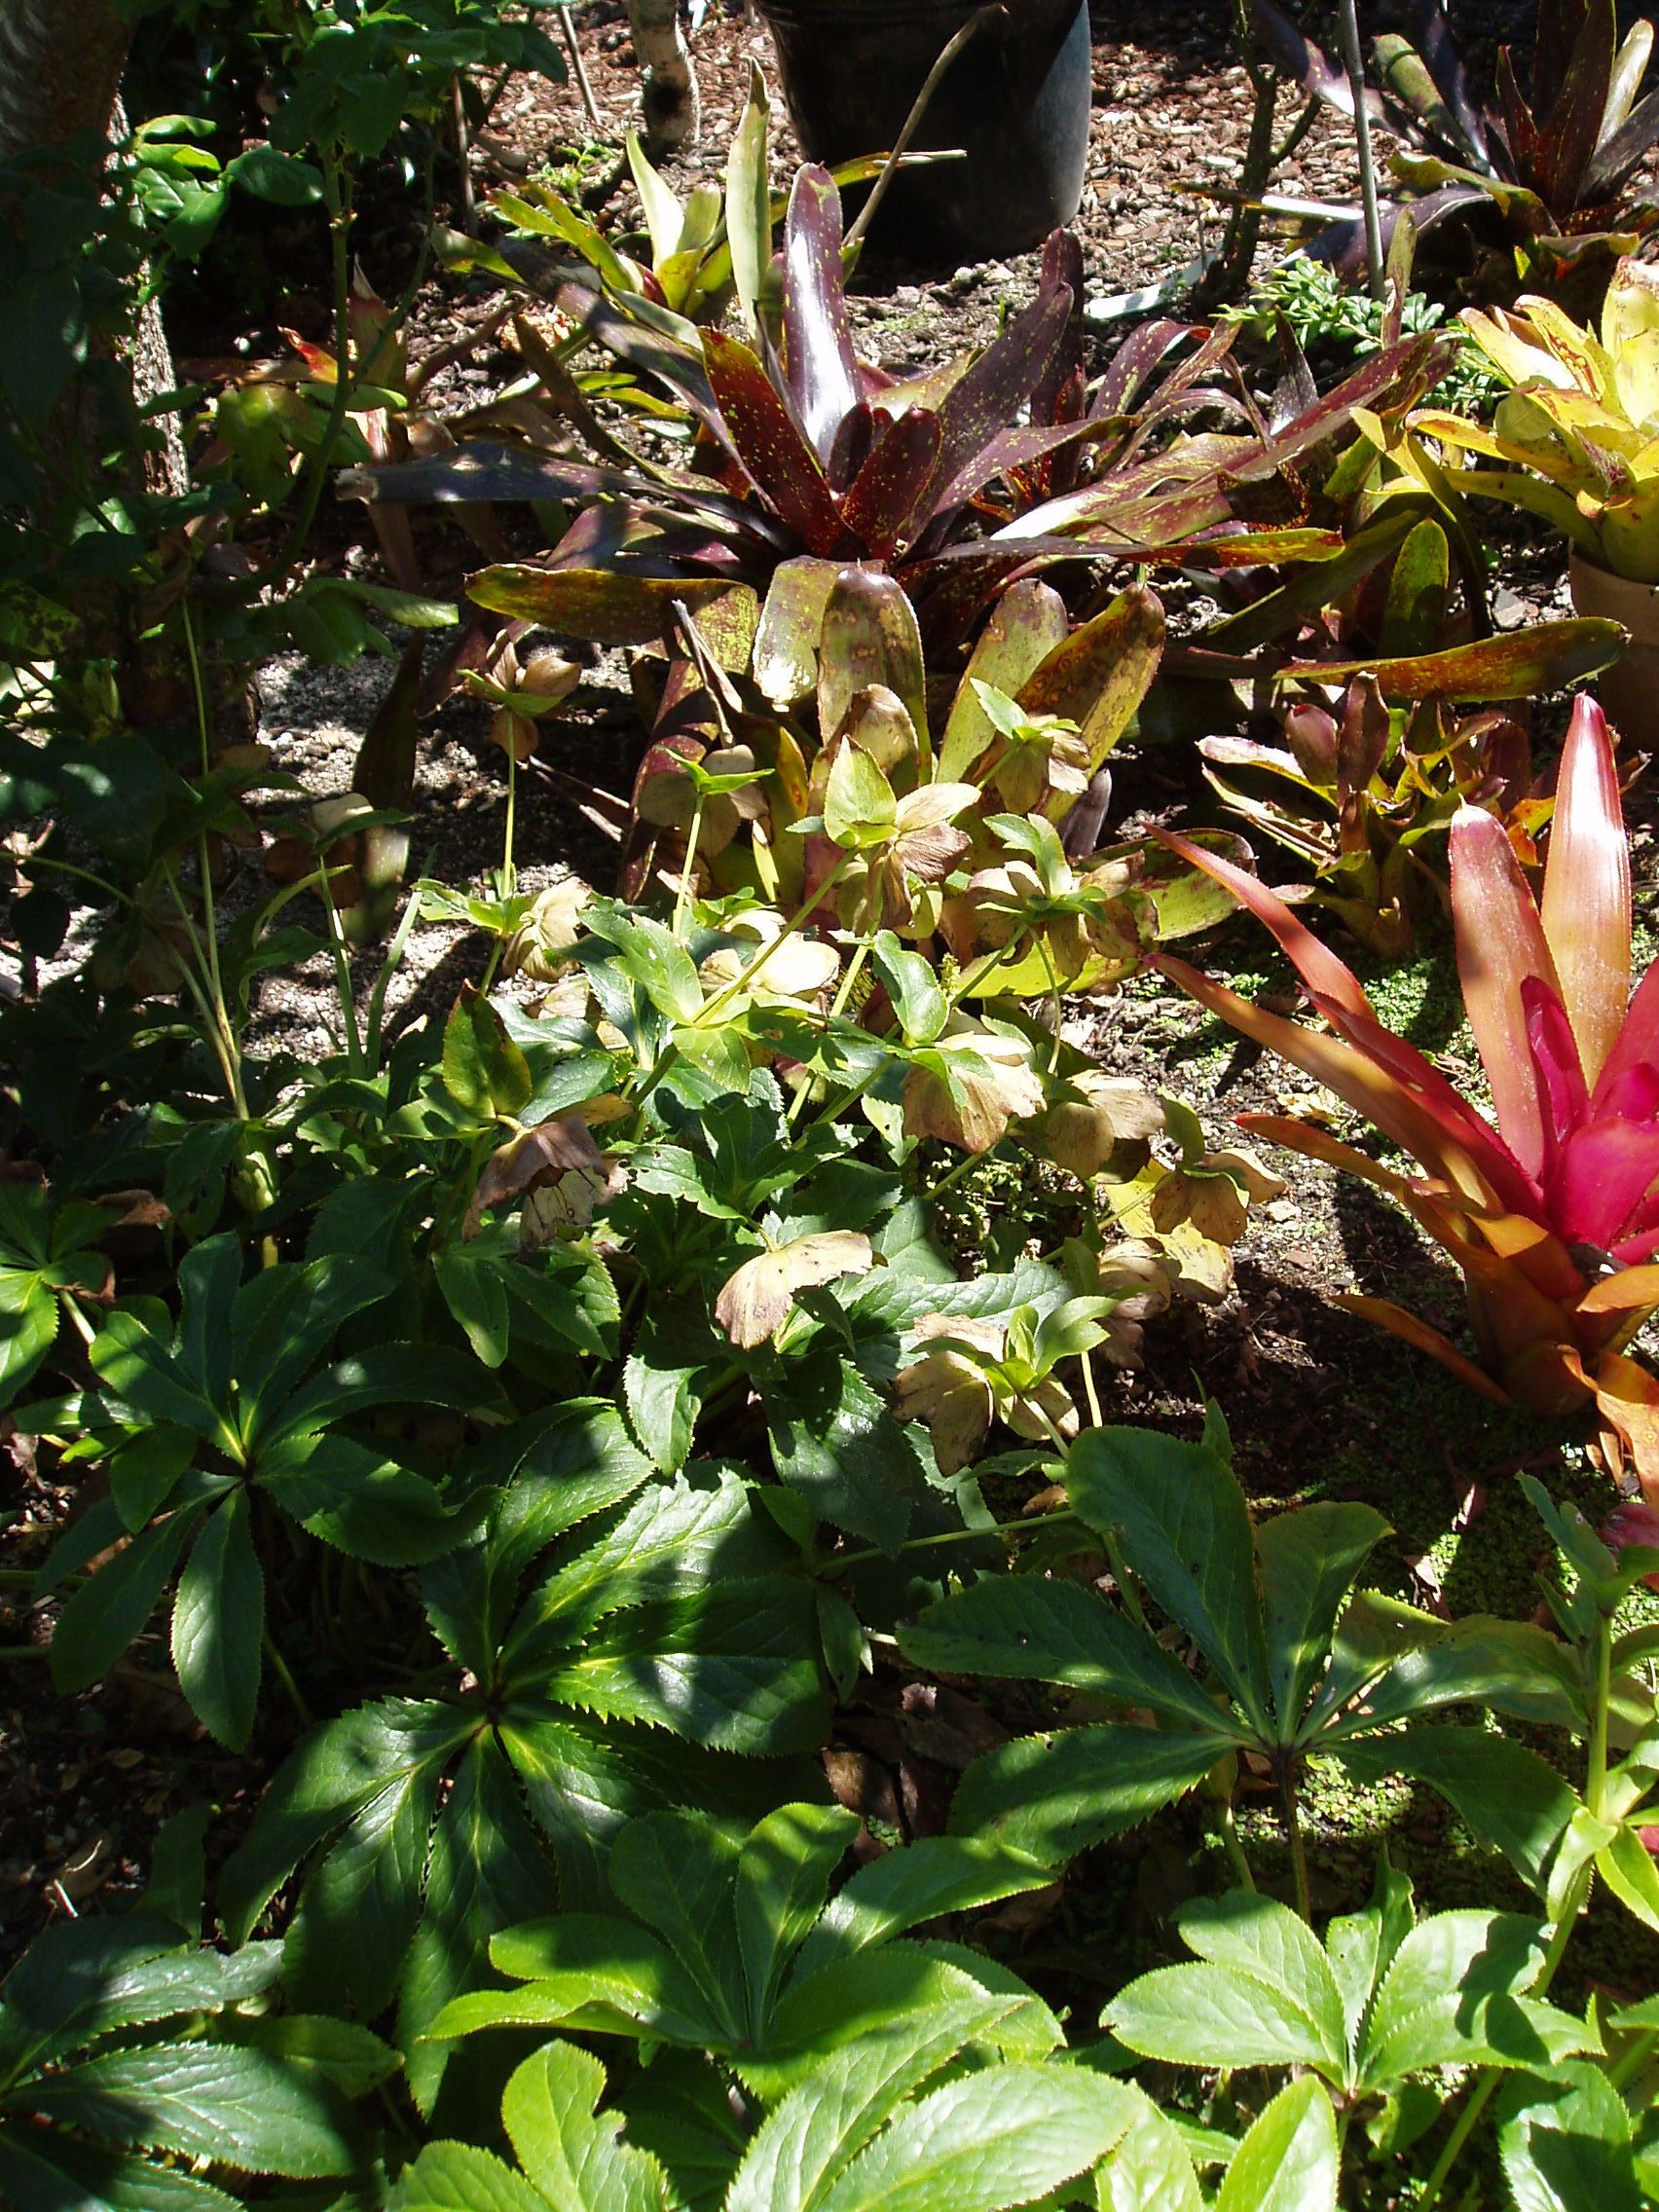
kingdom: Plantae
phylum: Tracheophyta
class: Magnoliopsida
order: Ranunculales
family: Ranunculaceae
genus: Helleborus
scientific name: Helleborus orientalis
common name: Lenten-rose
